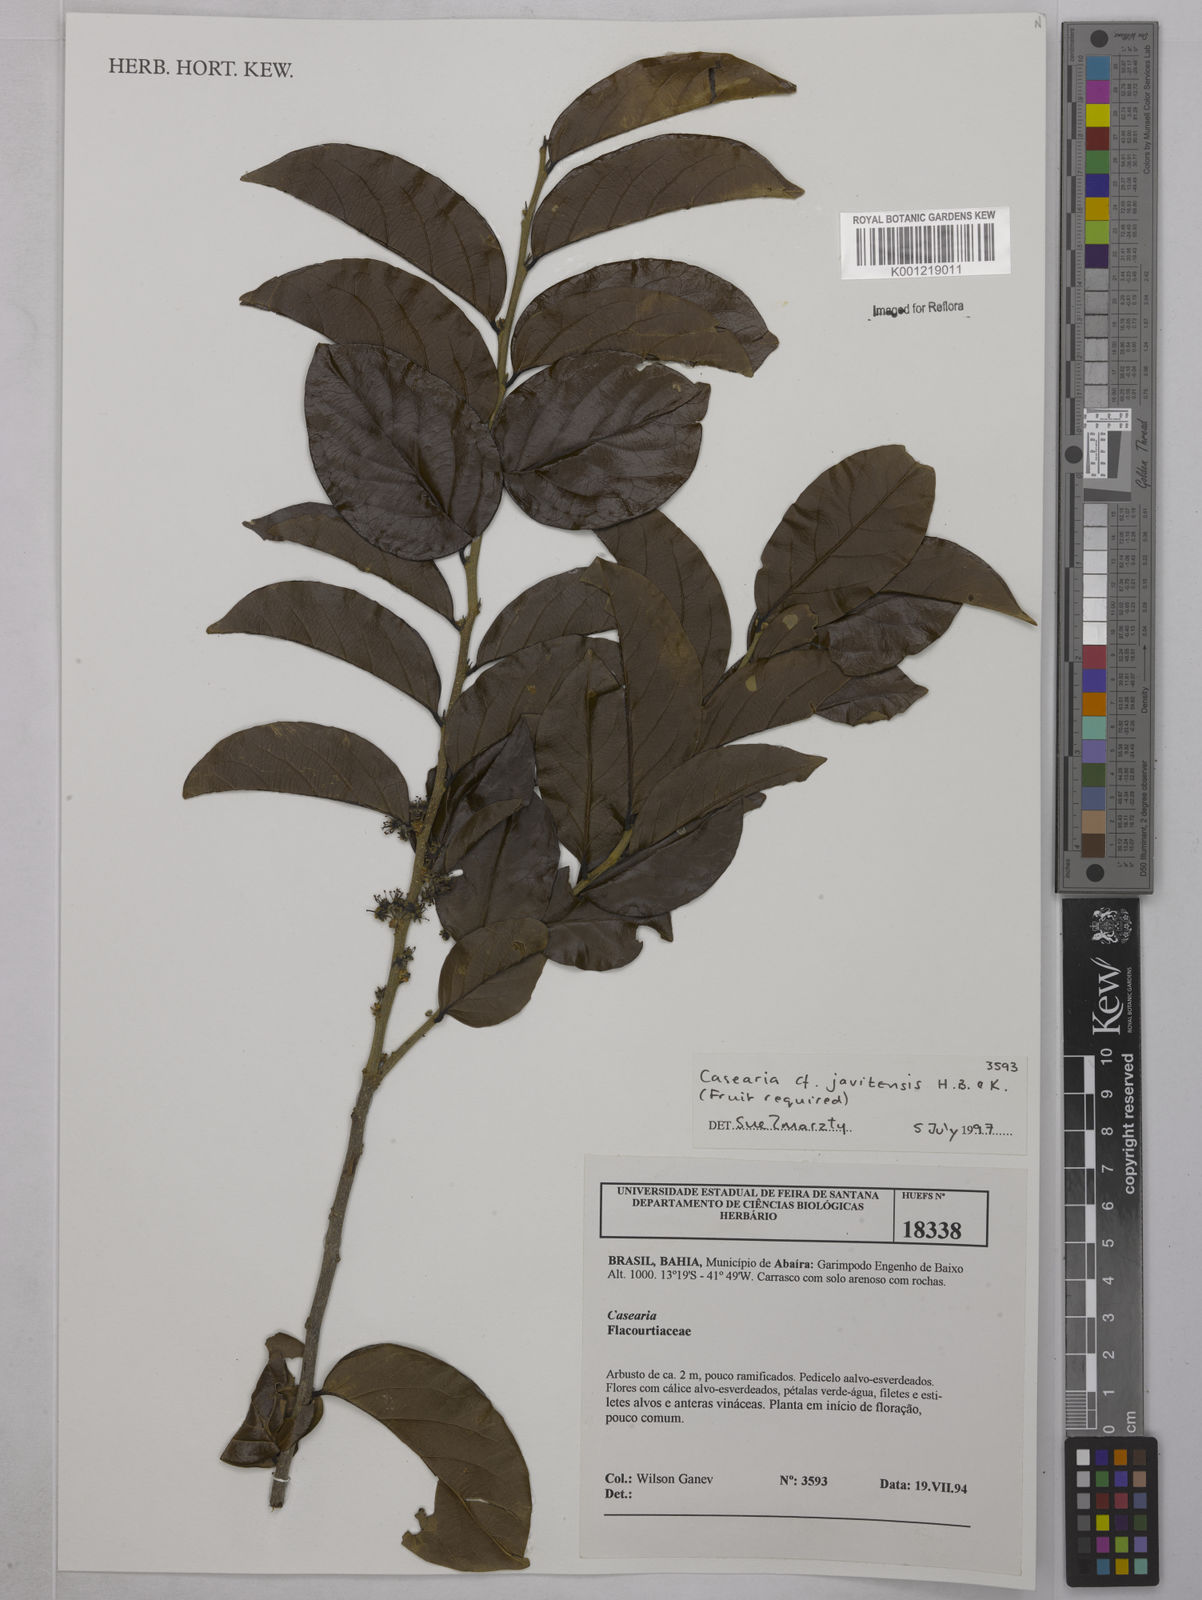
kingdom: Plantae
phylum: Tracheophyta
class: Magnoliopsida
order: Malpighiales
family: Salicaceae
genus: Piparea
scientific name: Piparea multiflora
